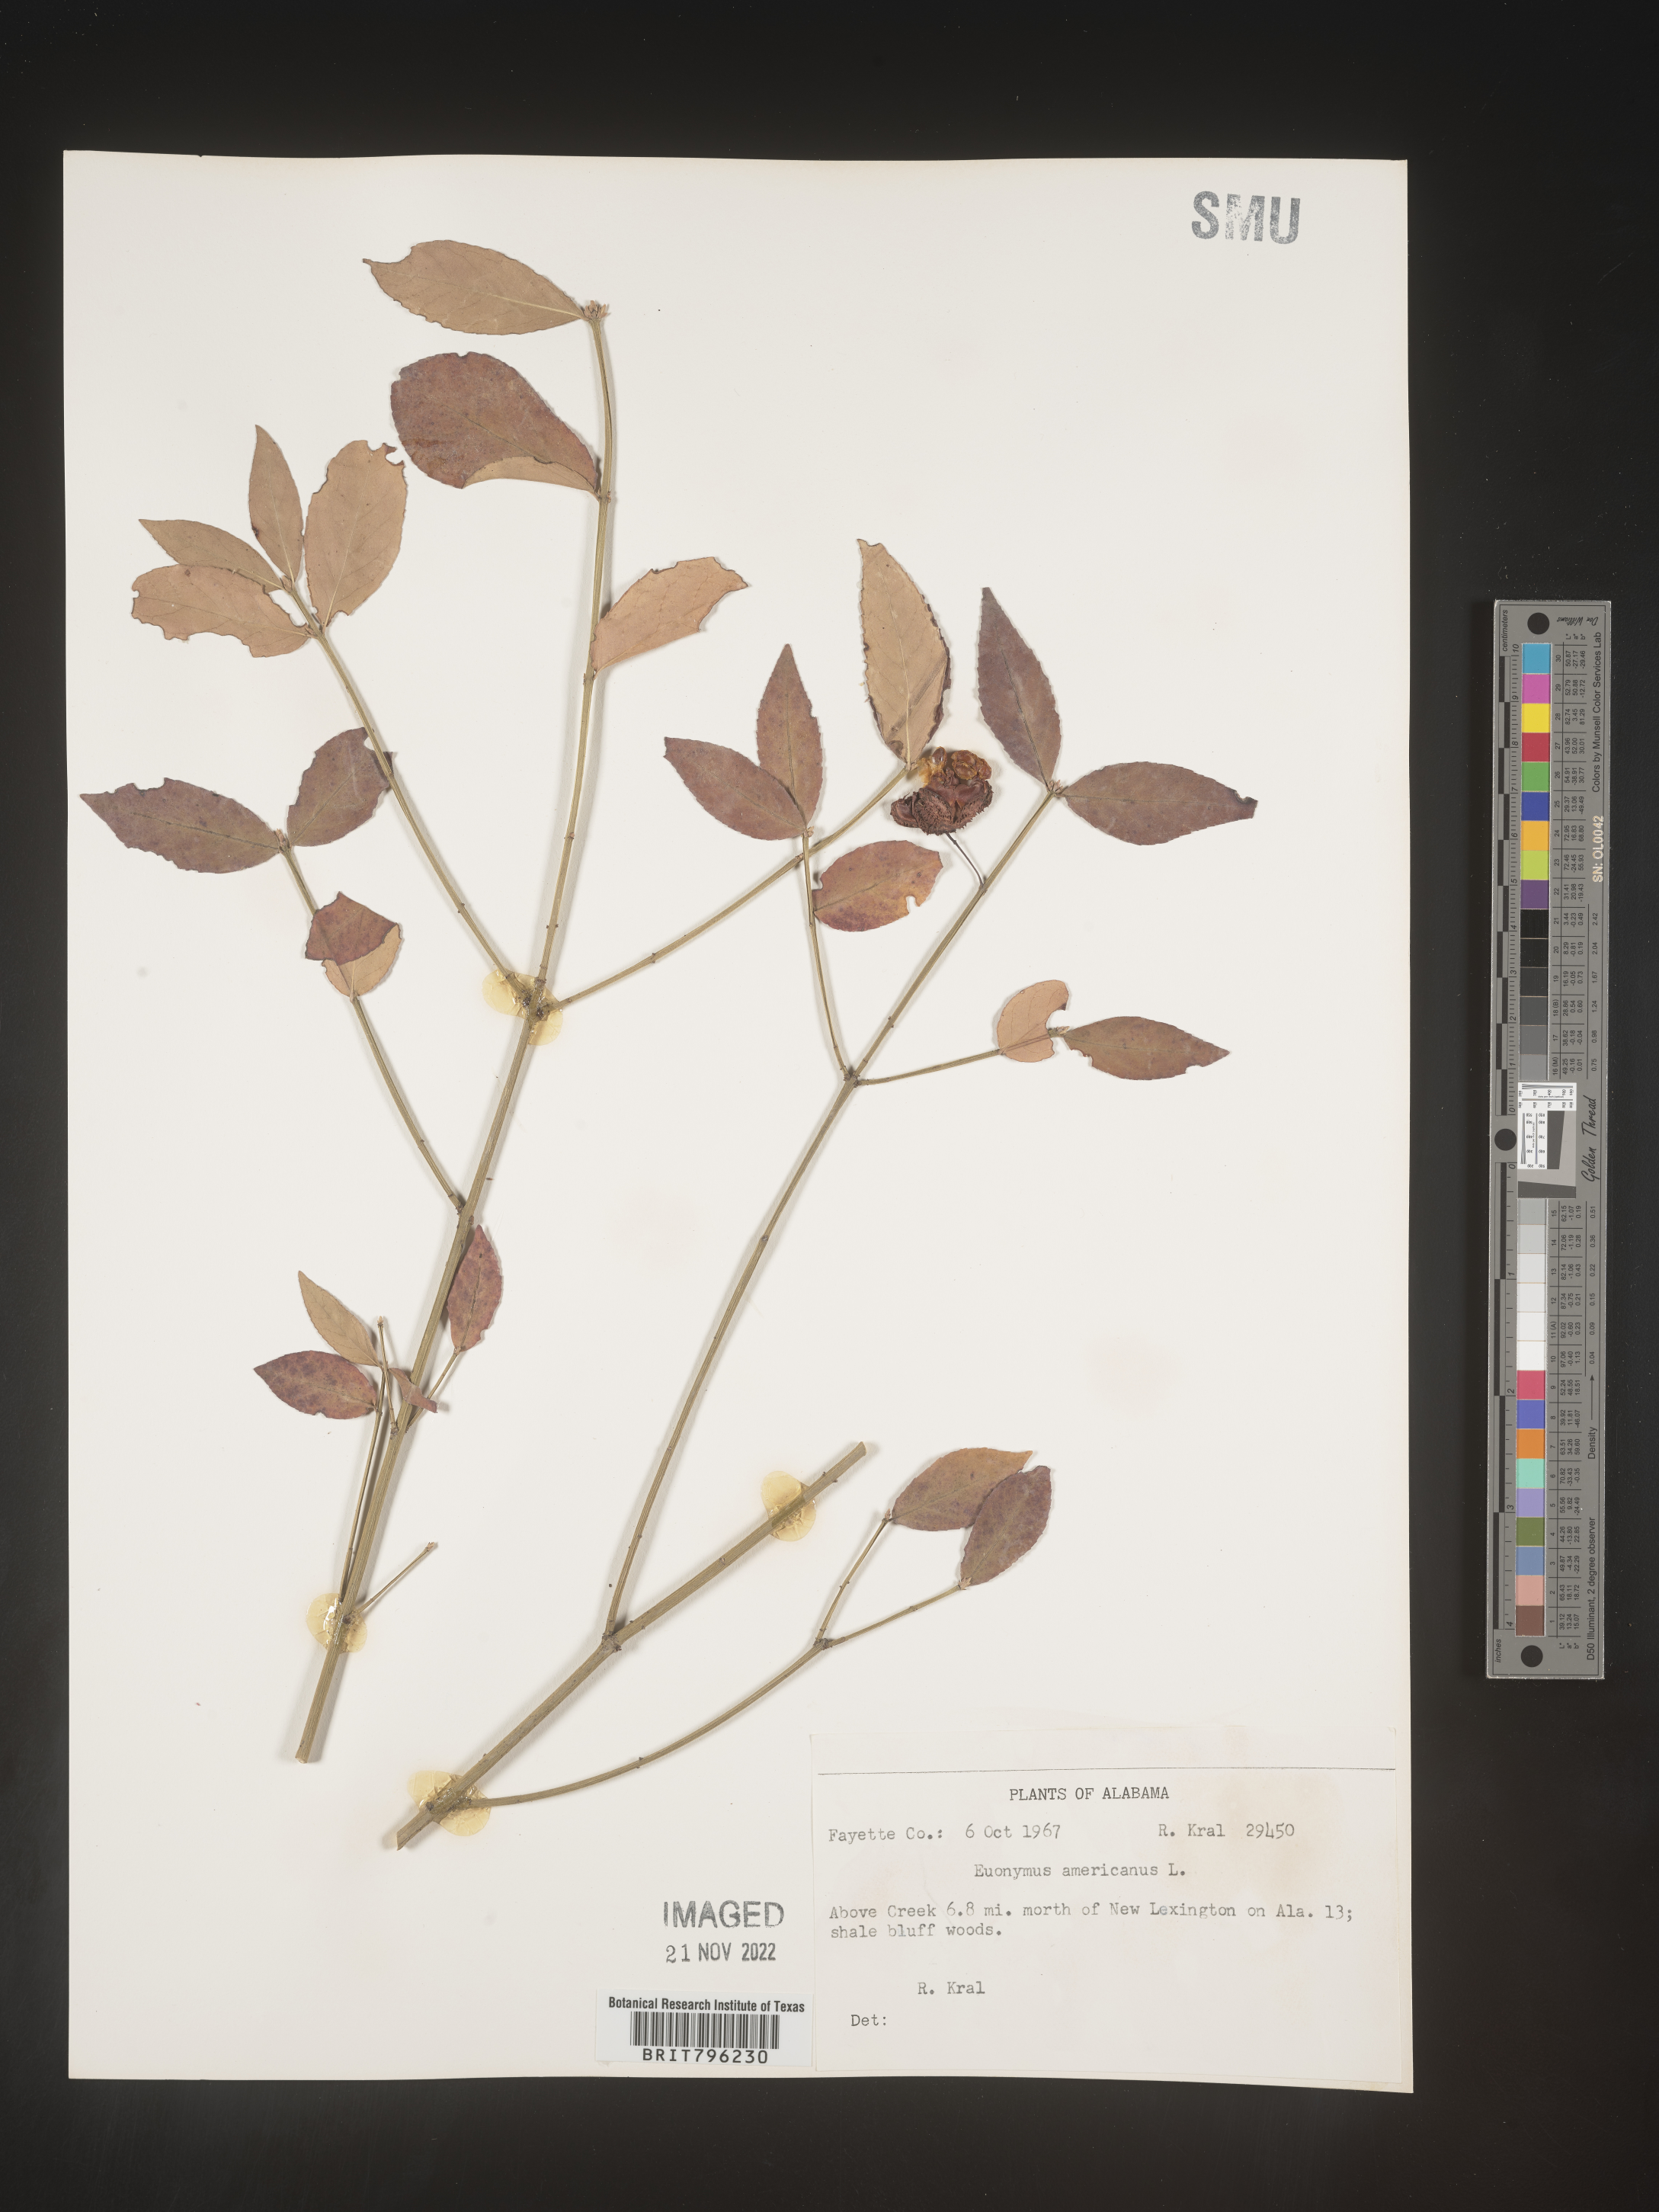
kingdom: Plantae
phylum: Tracheophyta
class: Magnoliopsida
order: Celastrales
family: Celastraceae
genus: Euonymus
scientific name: Euonymus americanus
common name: Bursting-heart
